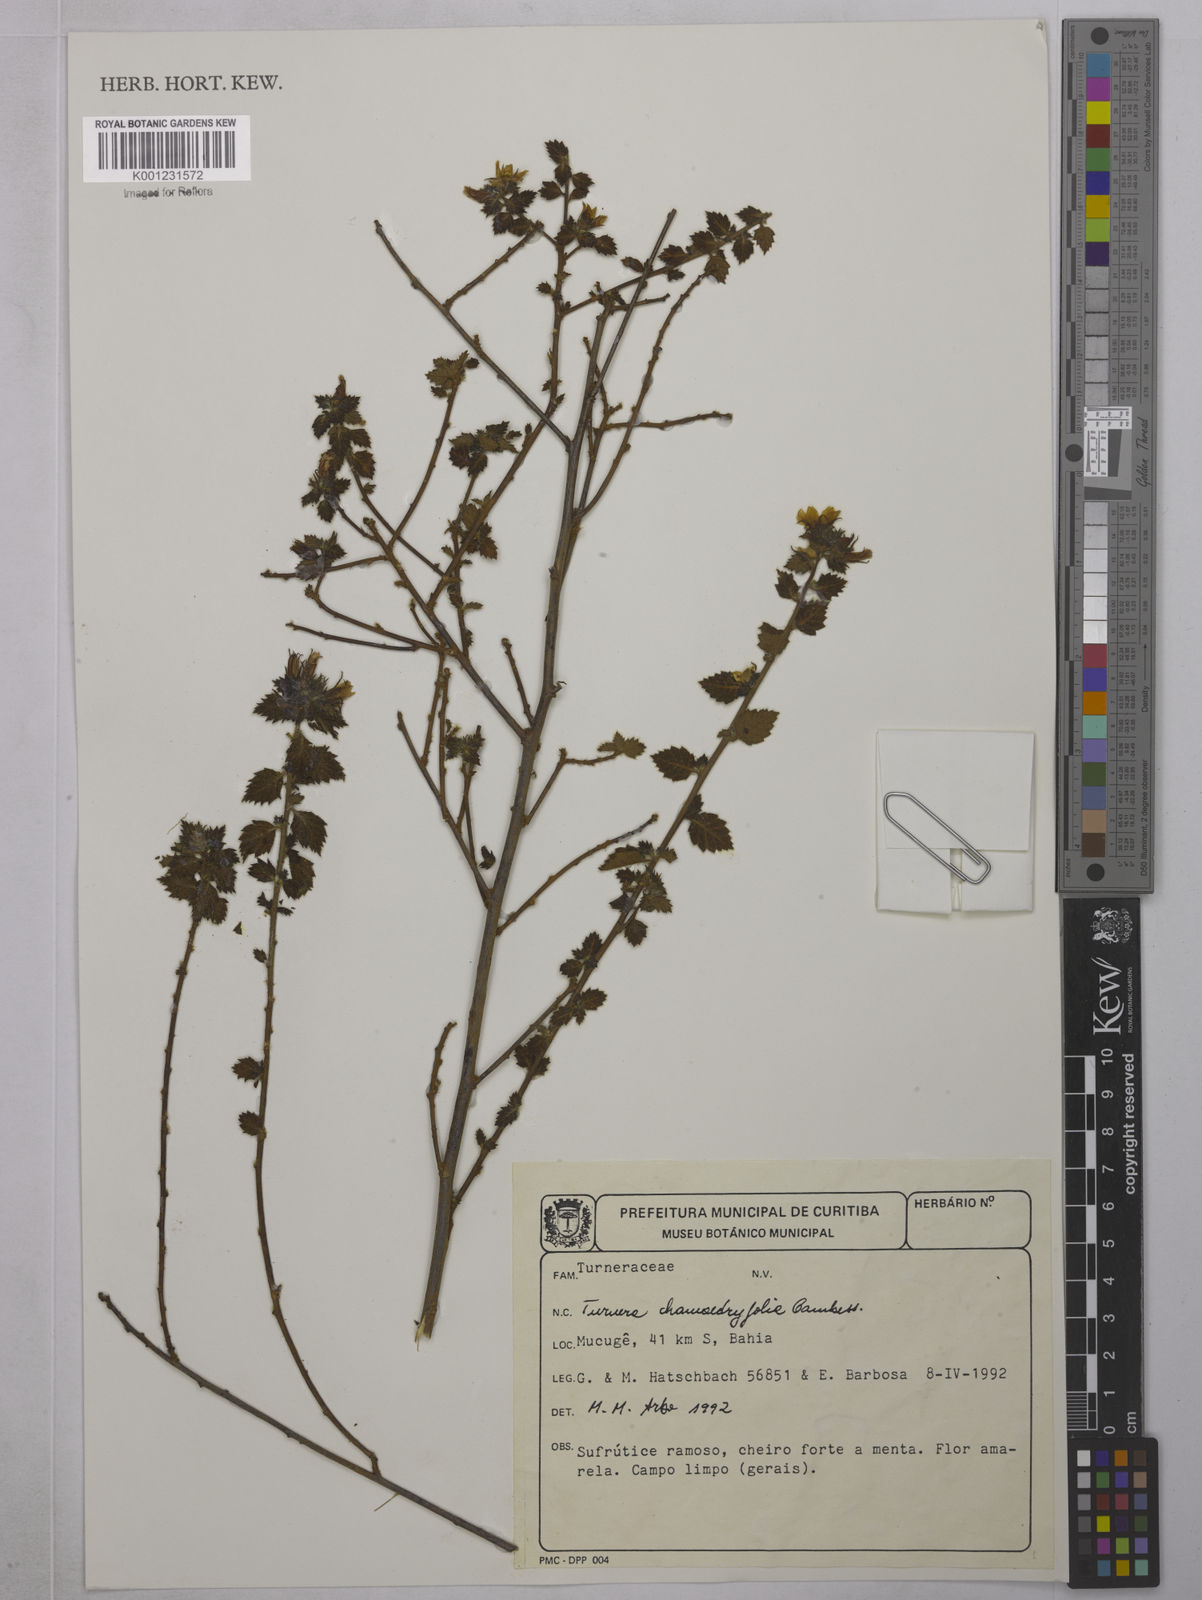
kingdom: Plantae
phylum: Tracheophyta
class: Magnoliopsida
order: Malpighiales
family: Turneraceae
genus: Turnera
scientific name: Turnera chamaedrifolia
